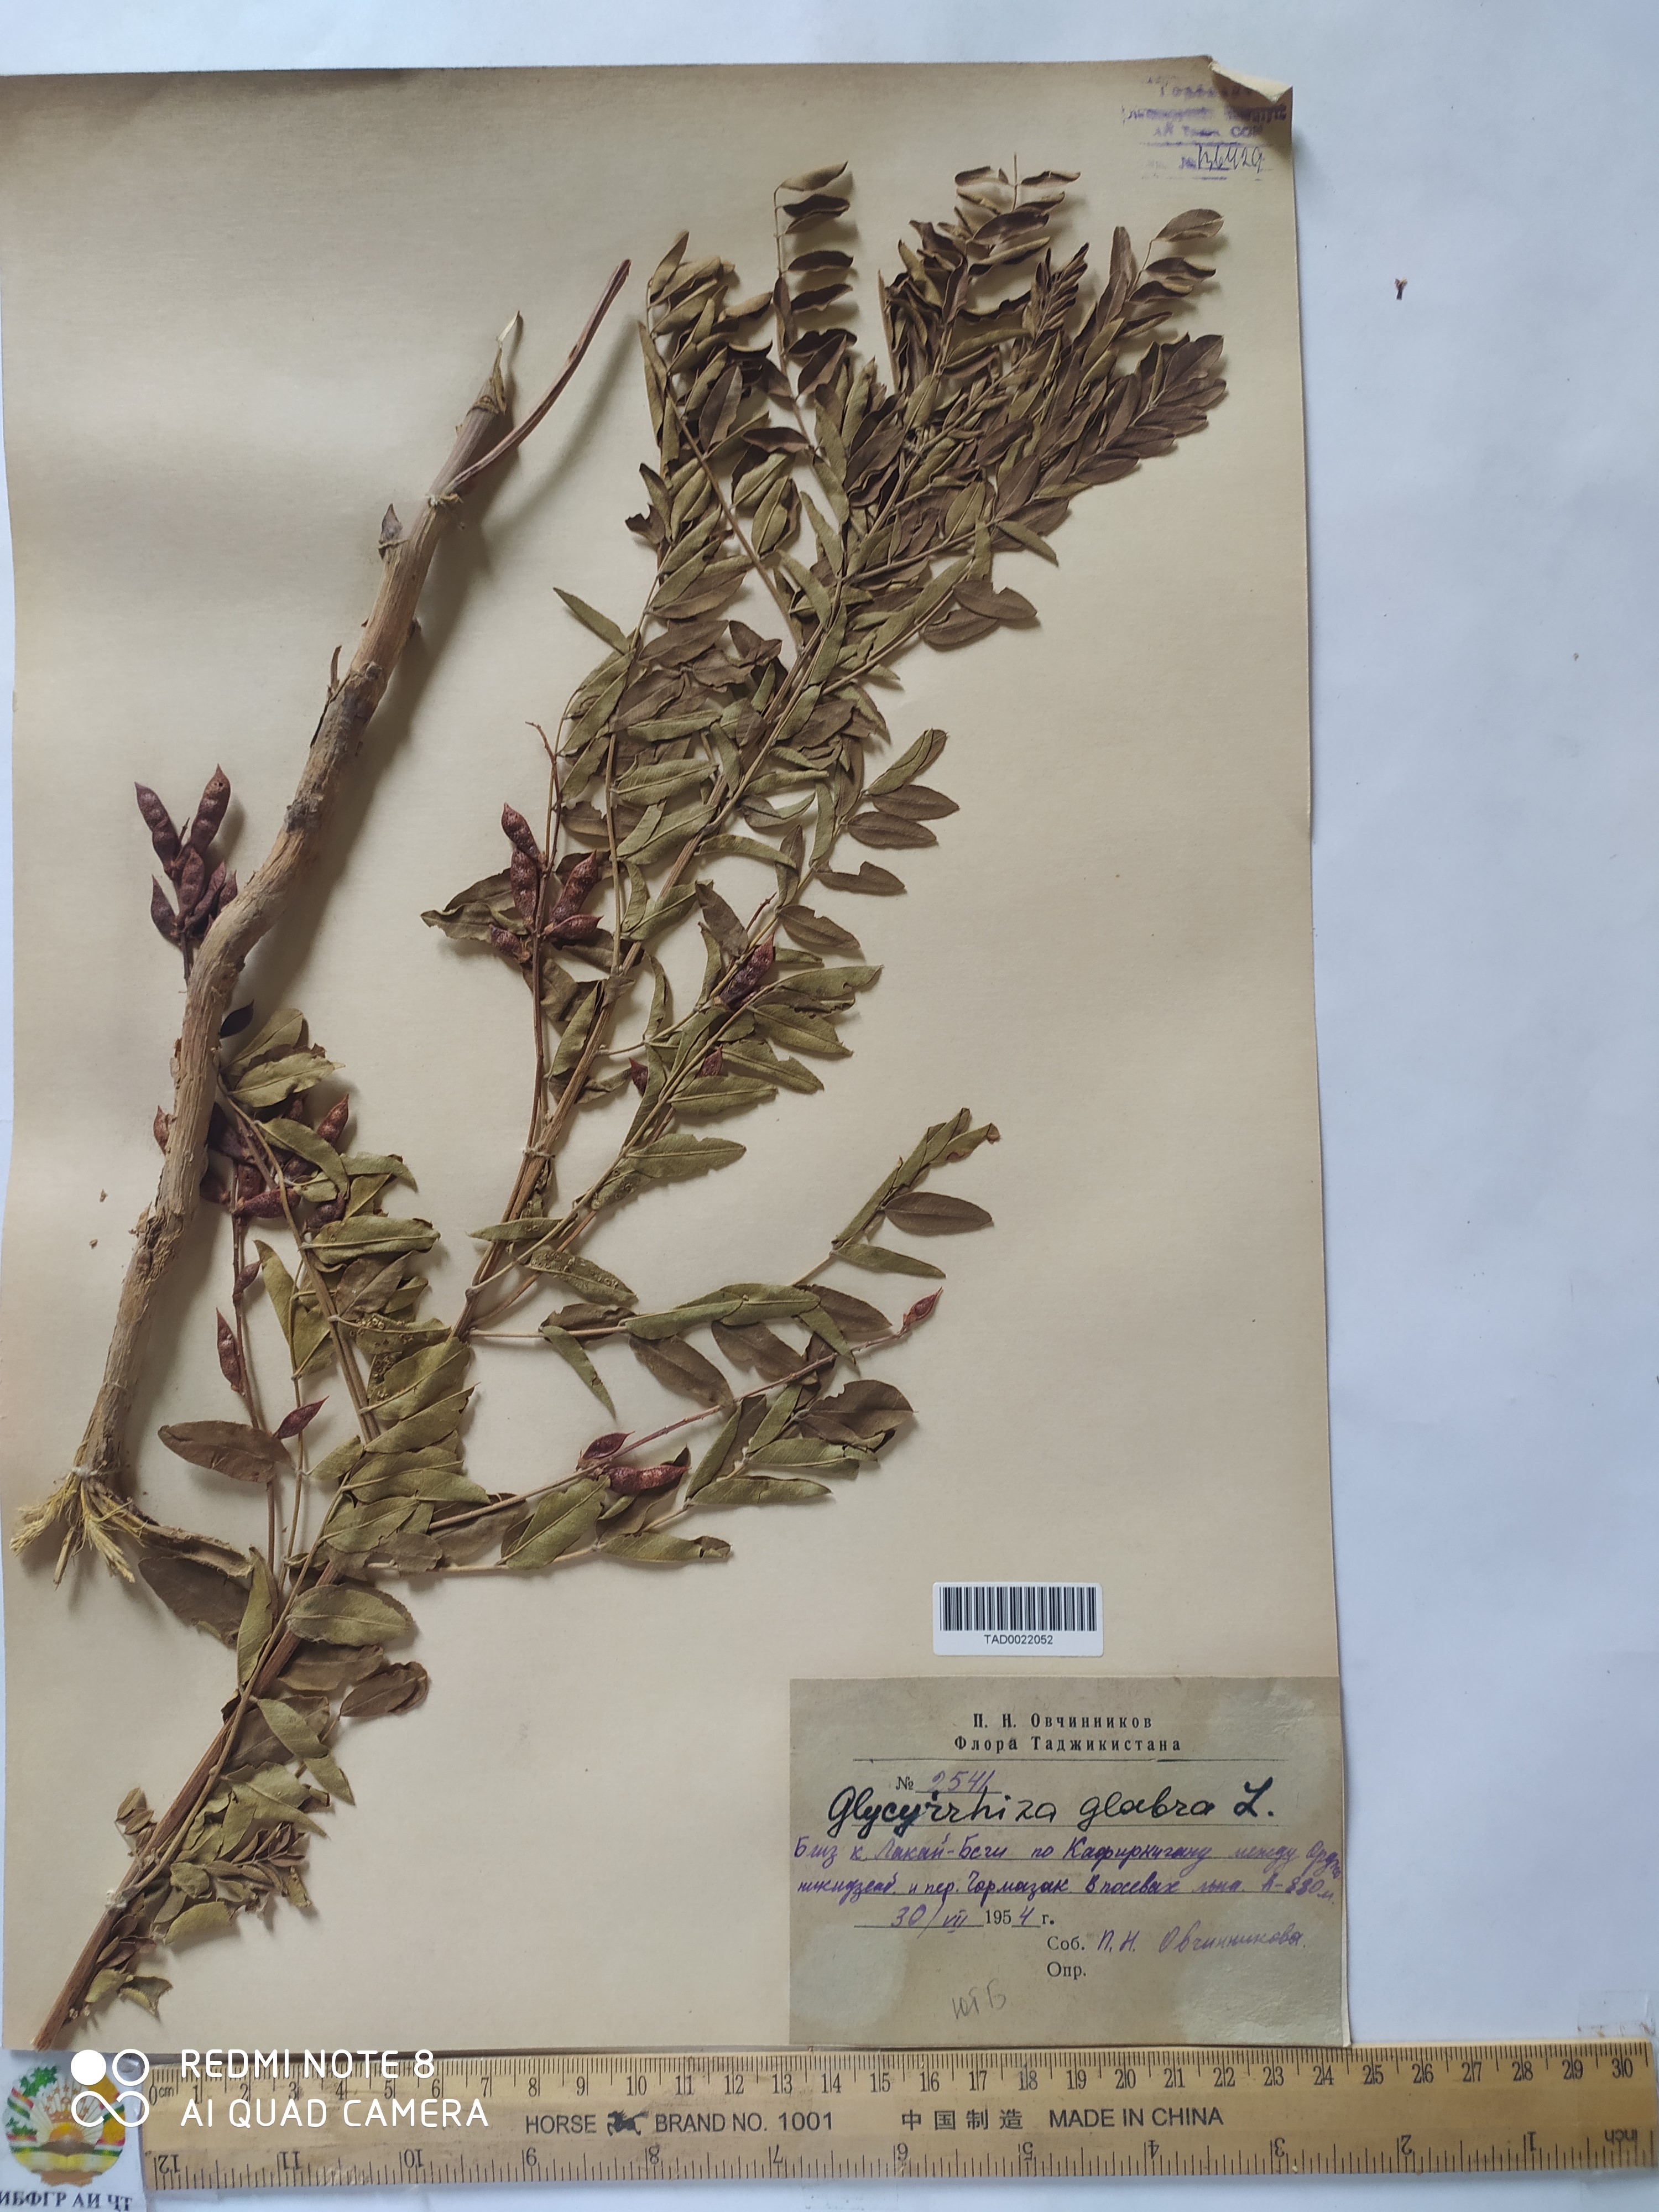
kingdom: Plantae
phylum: Tracheophyta
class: Magnoliopsida
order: Fabales
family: Fabaceae
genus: Glycyrrhiza
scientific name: Glycyrrhiza glabra
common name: Liquorice
